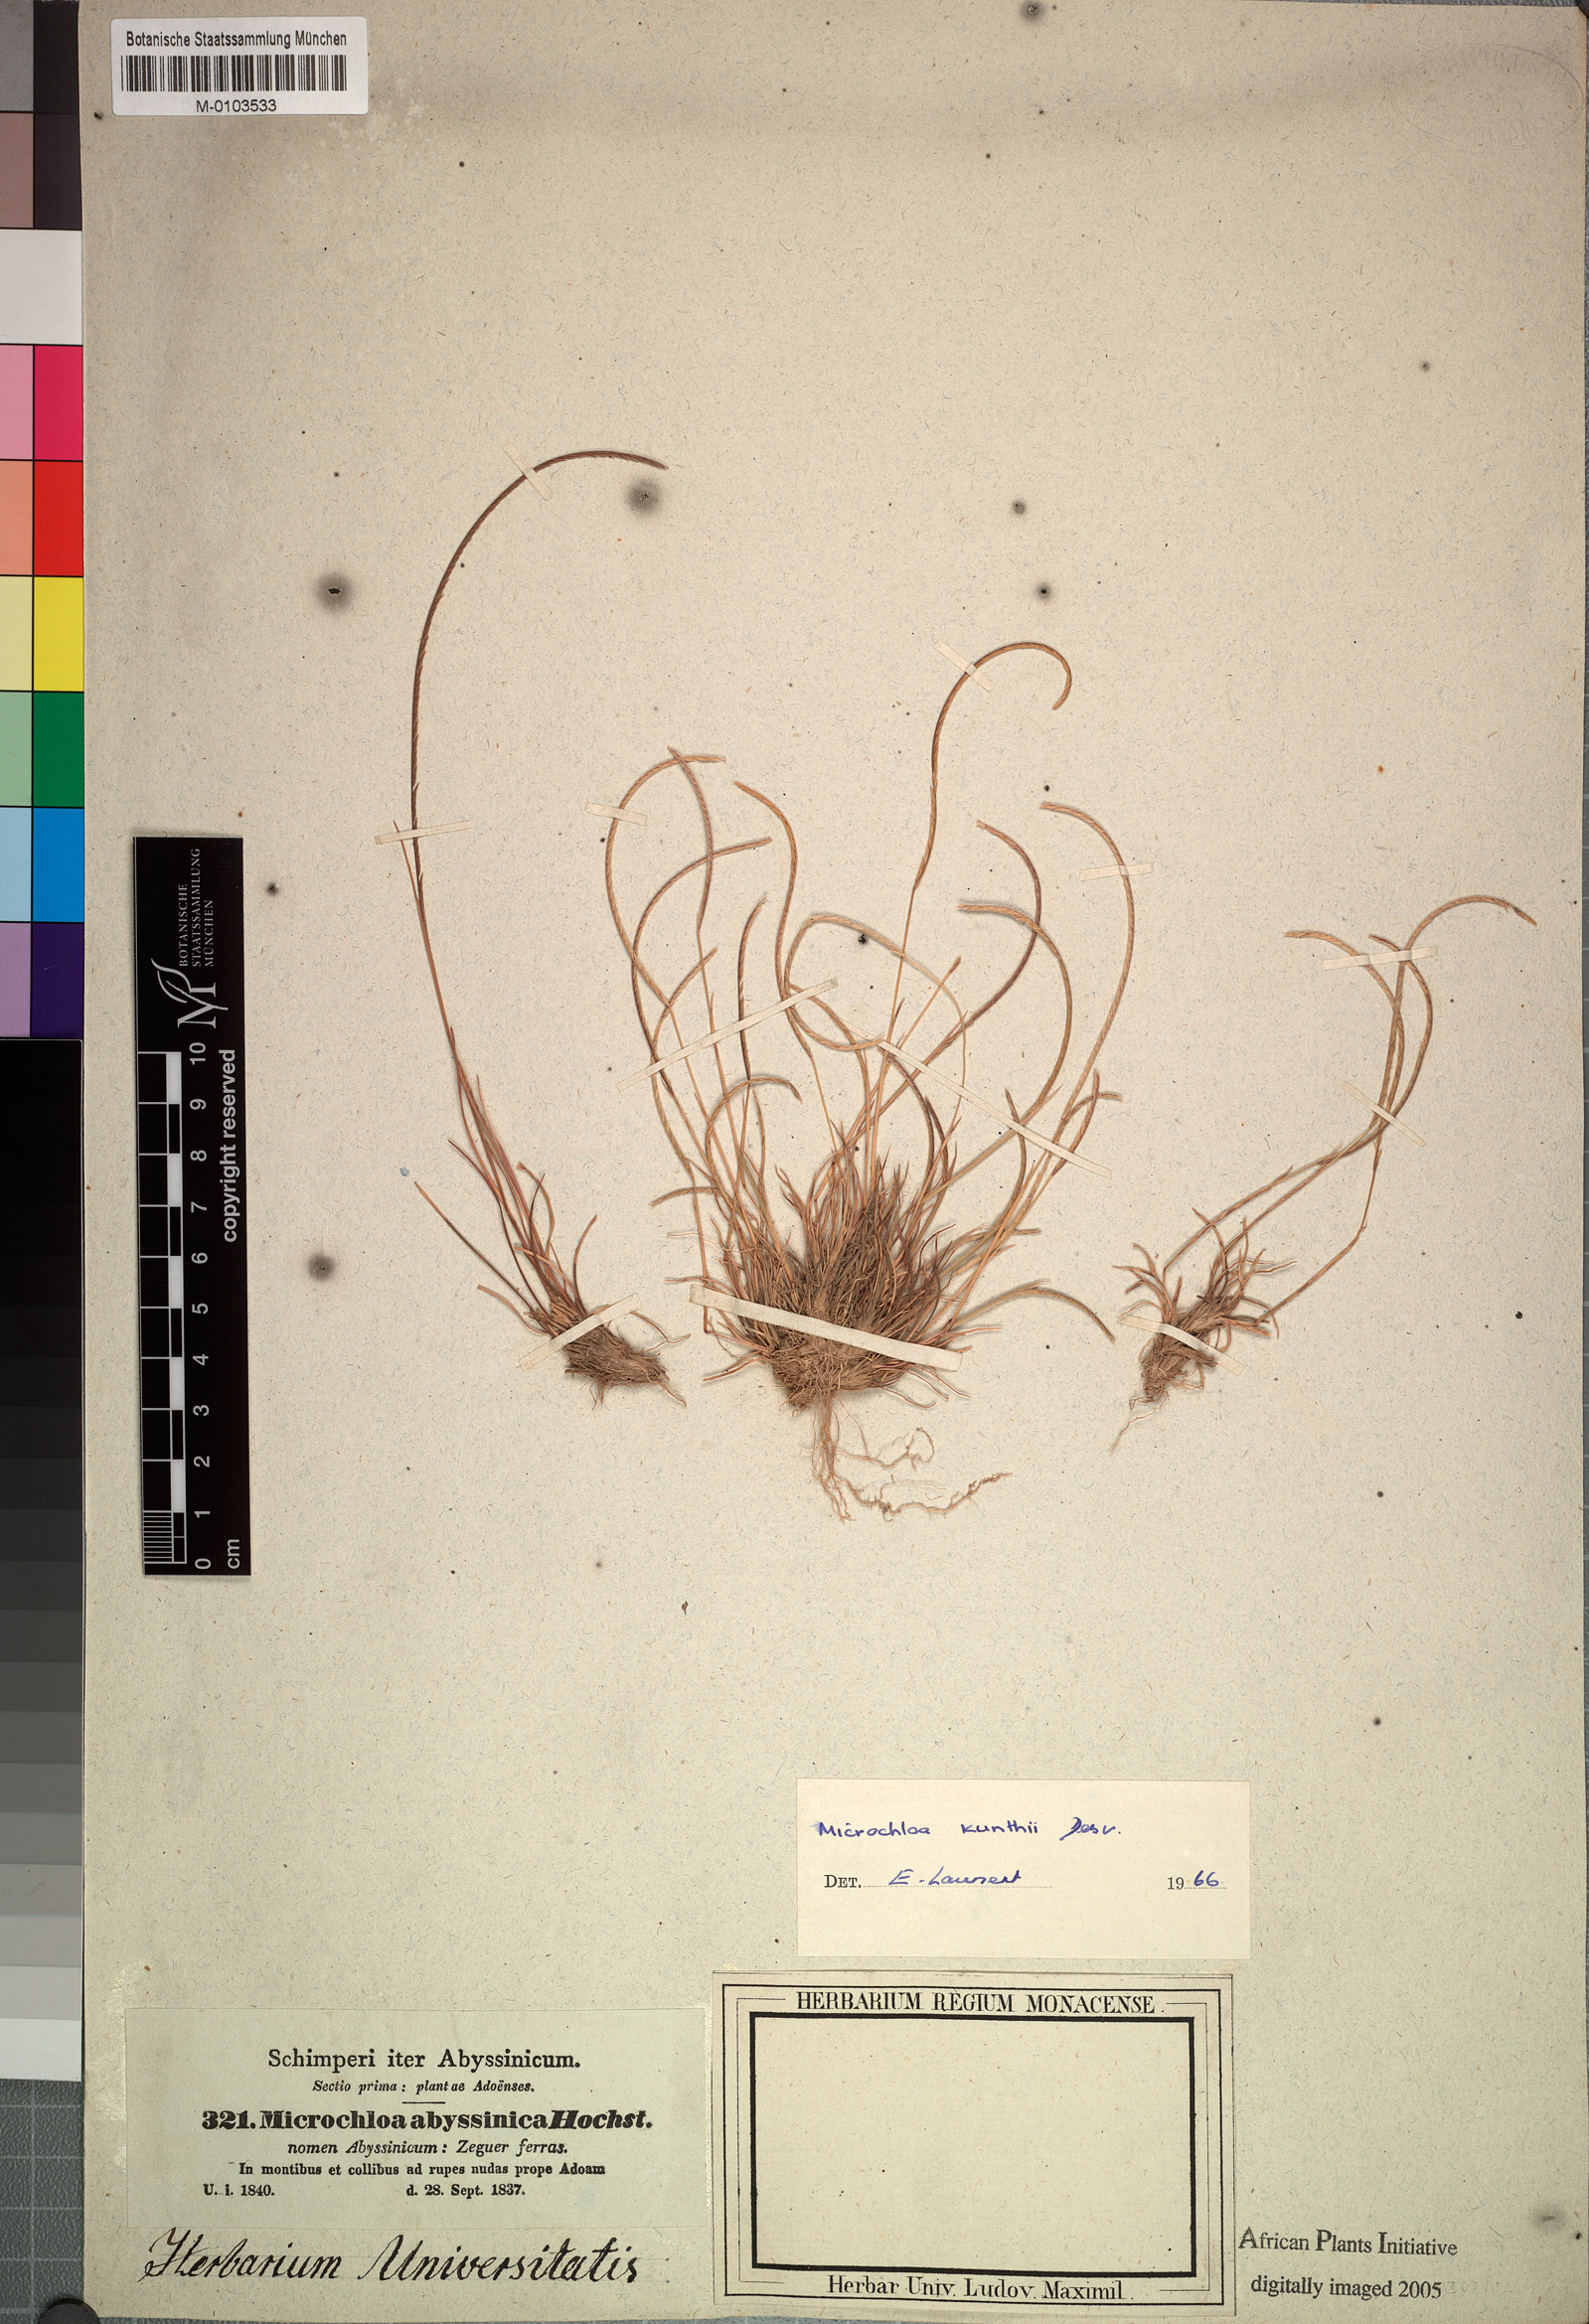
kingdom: Plantae
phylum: Tracheophyta
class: Liliopsida
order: Poales
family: Poaceae
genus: Microchloa
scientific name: Microchloa kunthii
